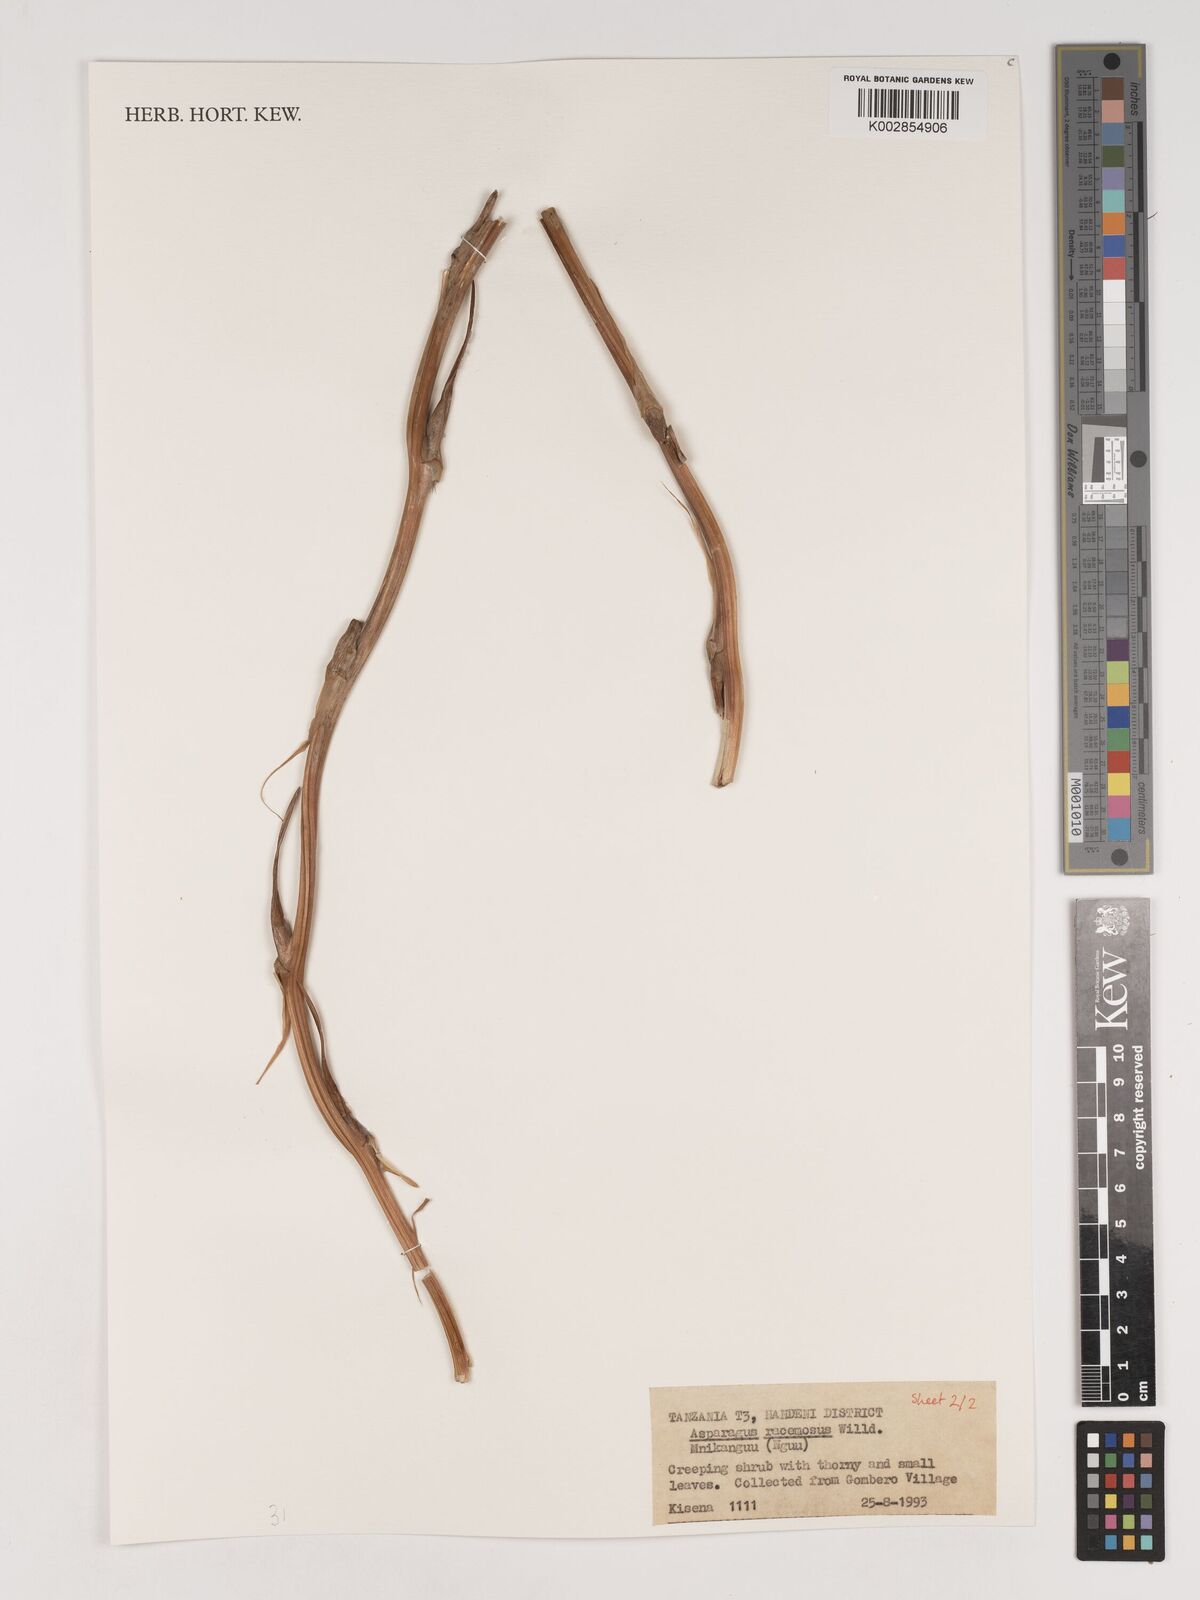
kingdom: Plantae
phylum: Tracheophyta
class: Liliopsida
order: Asparagales
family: Asparagaceae
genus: Asparagus
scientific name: Asparagus racemosus
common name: Asparagus-fern
